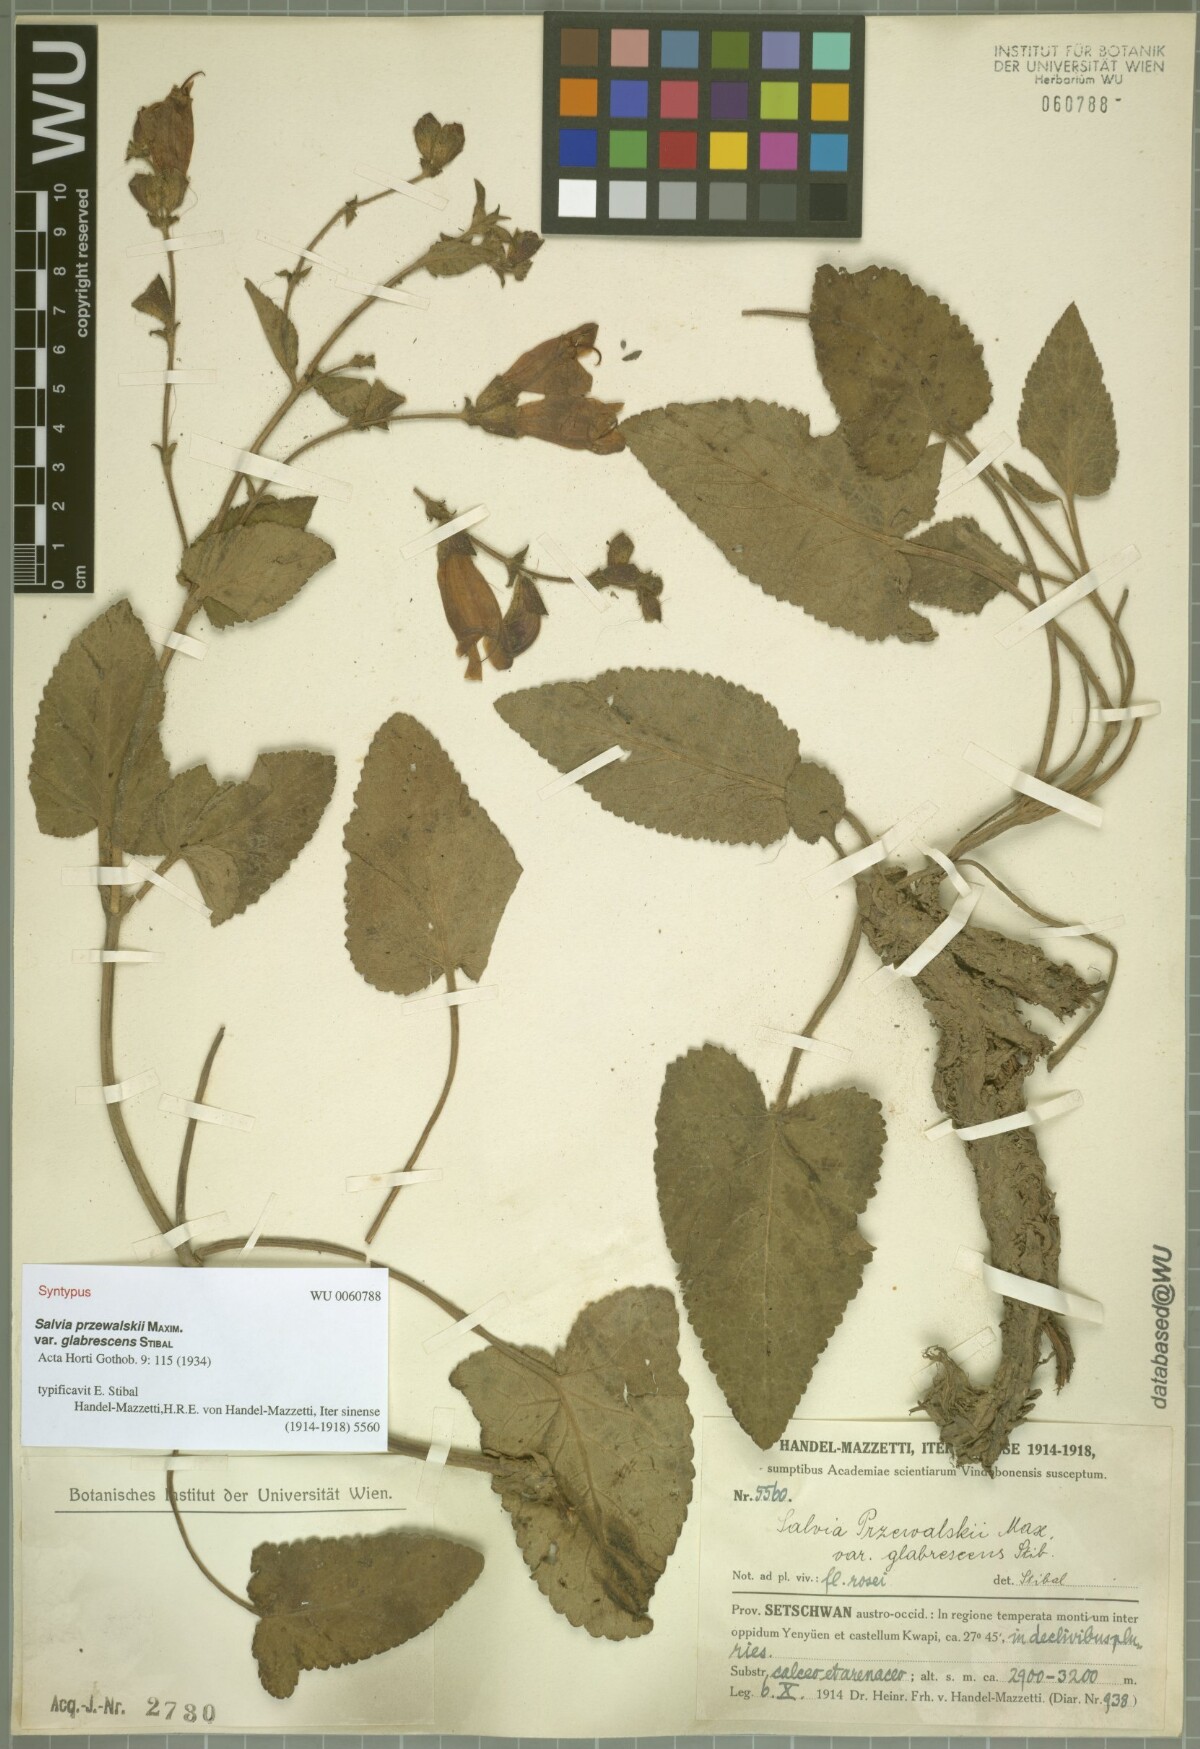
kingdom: Plantae
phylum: Tracheophyta
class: Magnoliopsida
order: Lamiales
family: Lamiaceae
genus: Salvia
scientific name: Salvia przewalskii
